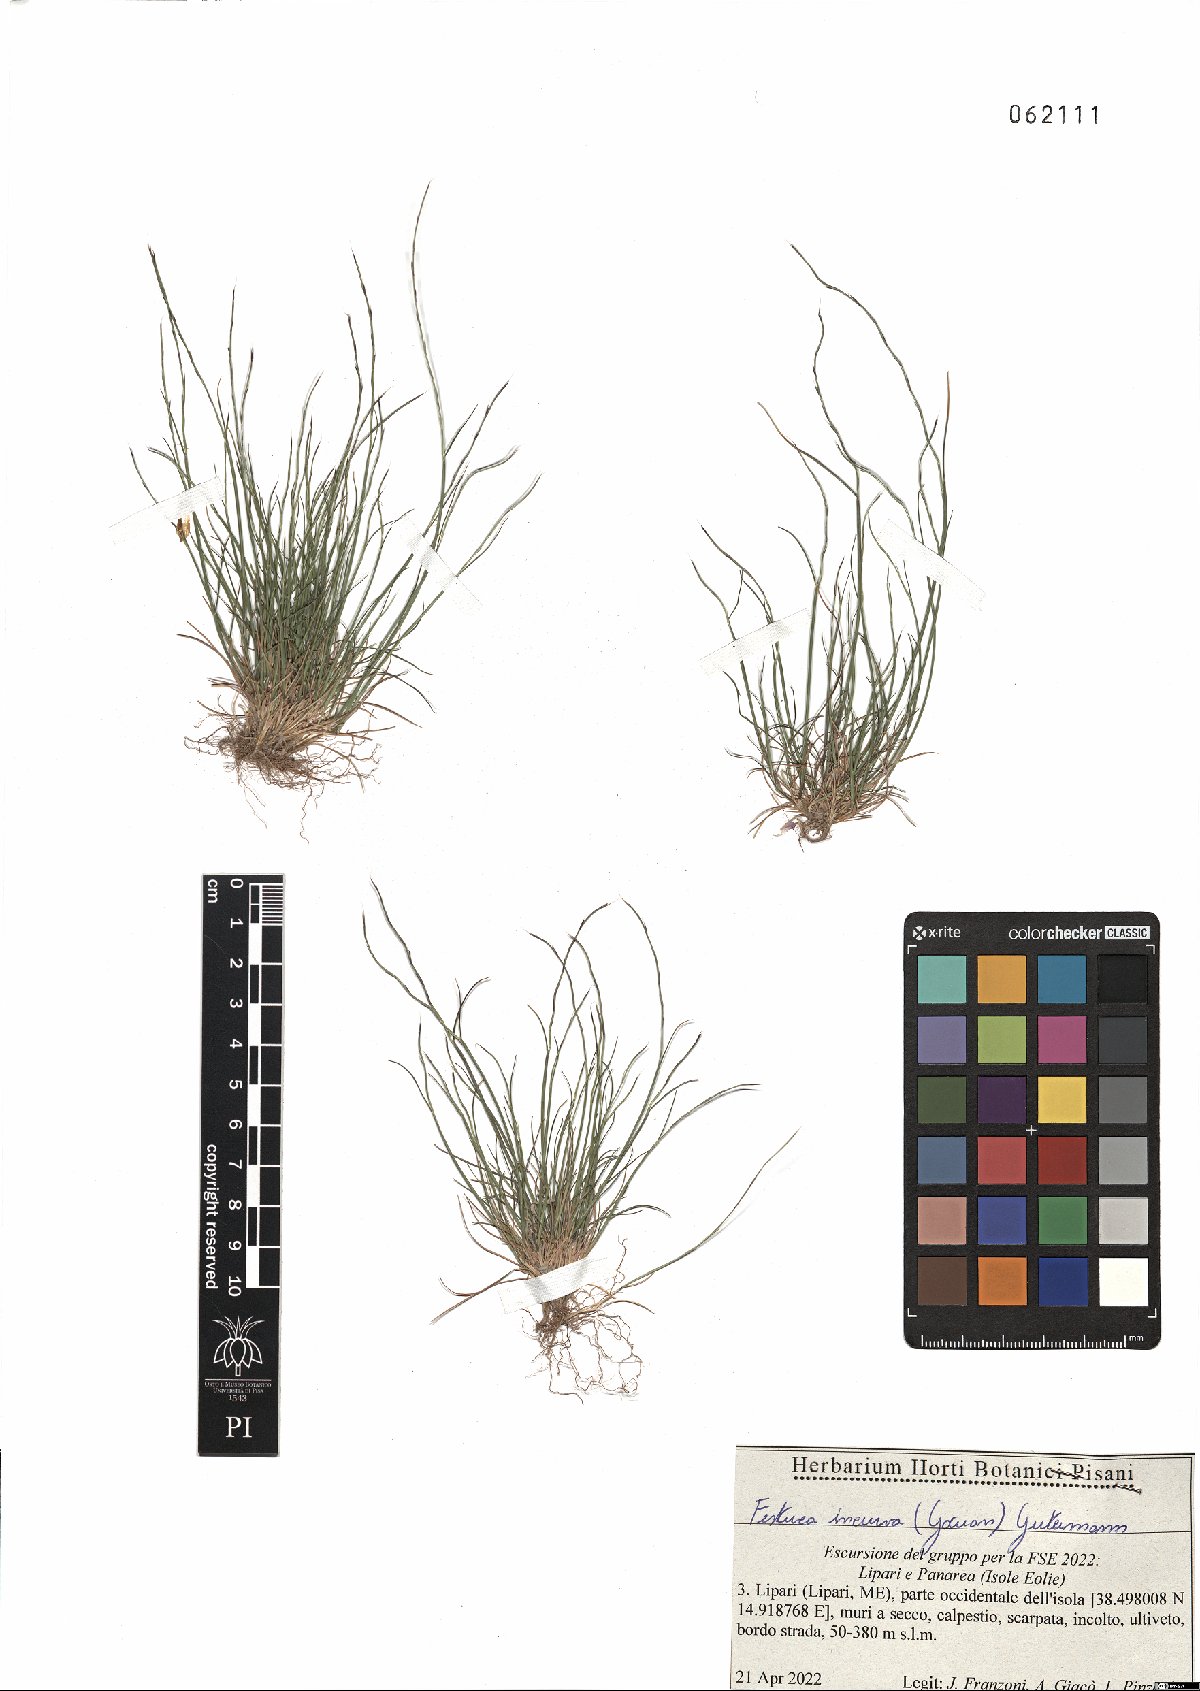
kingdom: Plantae
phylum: Tracheophyta
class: Liliopsida
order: Poales
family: Poaceae
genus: Festuca
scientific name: Festuca incurva
